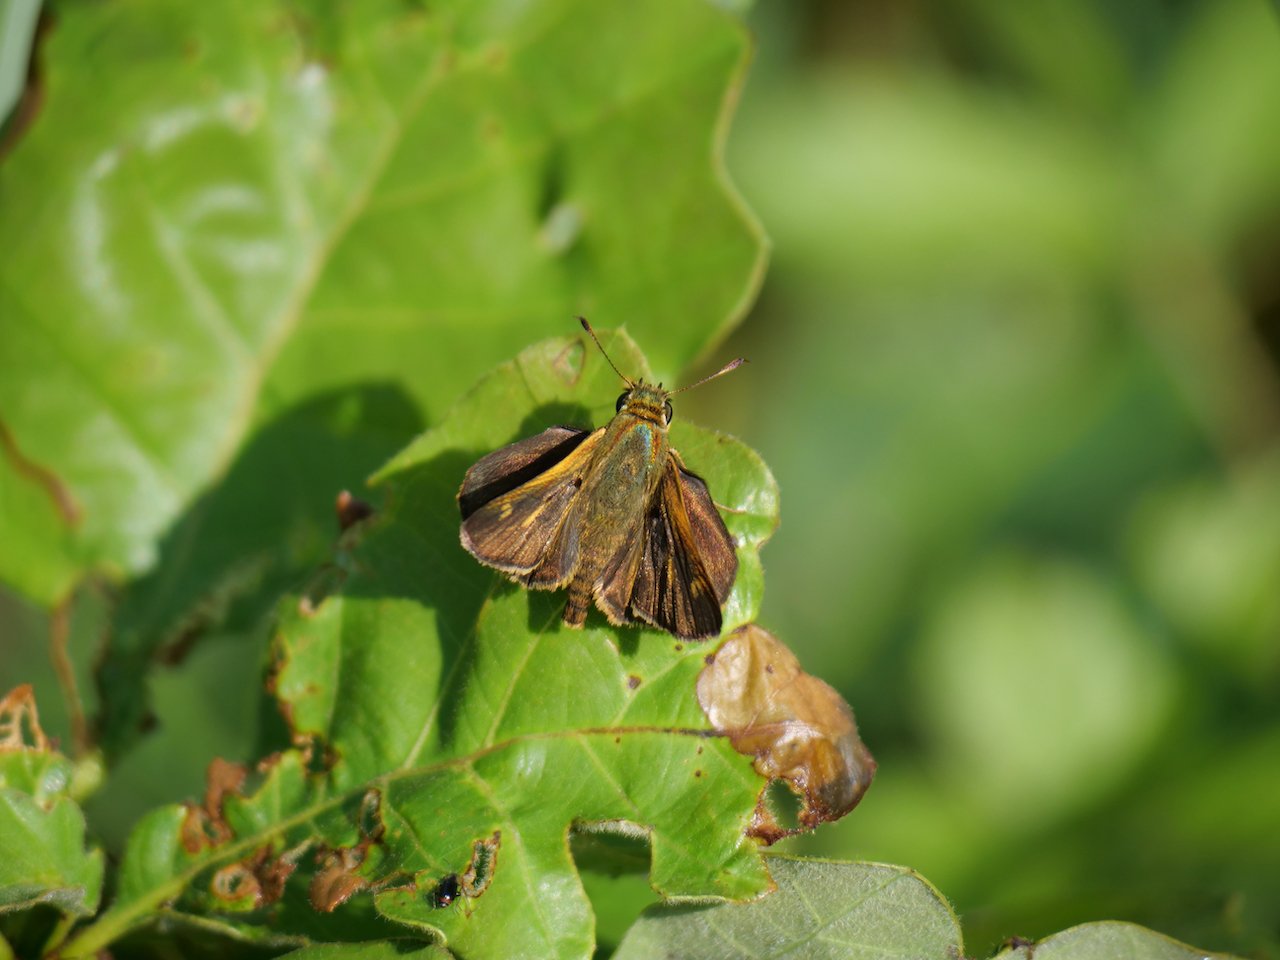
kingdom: Animalia
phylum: Arthropoda
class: Insecta
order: Lepidoptera
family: Hesperiidae
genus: Polites
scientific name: Polites egeremet
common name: Northern Broken-Dash
